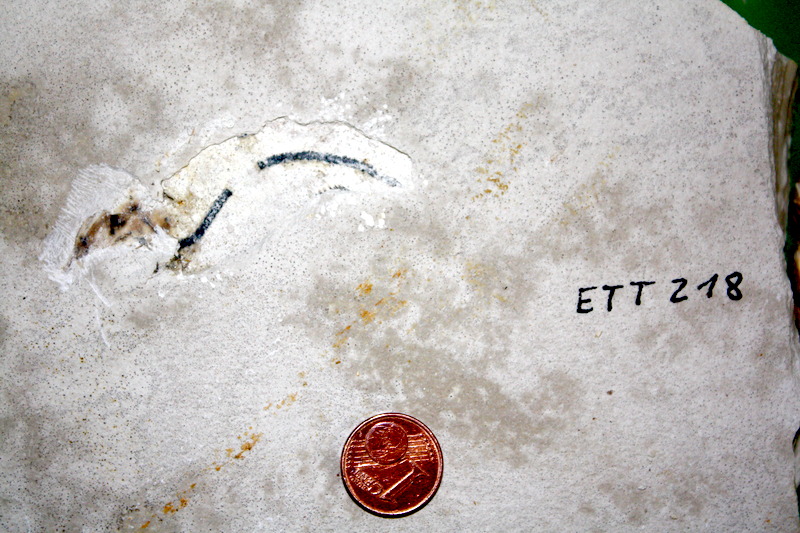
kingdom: Animalia
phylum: Chordata
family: Ascalaboidae
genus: Ebertichthys
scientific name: Ebertichthys ettlingensis
